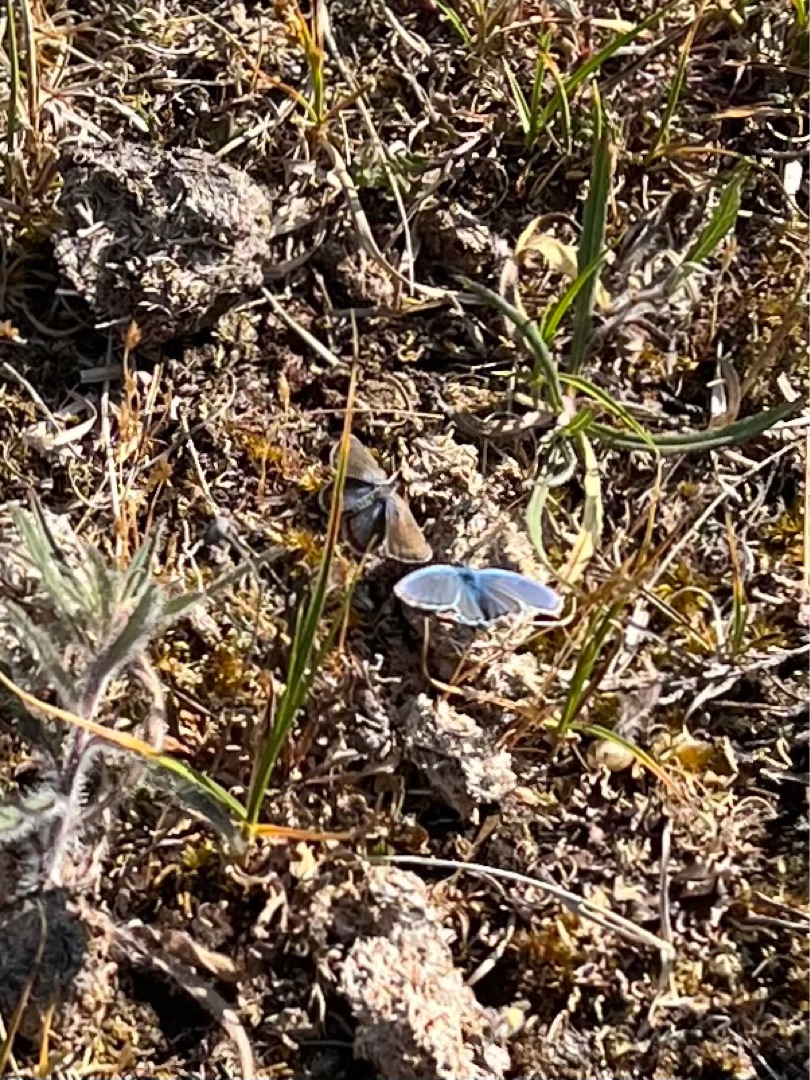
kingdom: Animalia
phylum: Arthropoda
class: Insecta
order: Lepidoptera
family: Lycaenidae
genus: Polyommatus
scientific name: Polyommatus icarus
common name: Almindelig blåfugl
